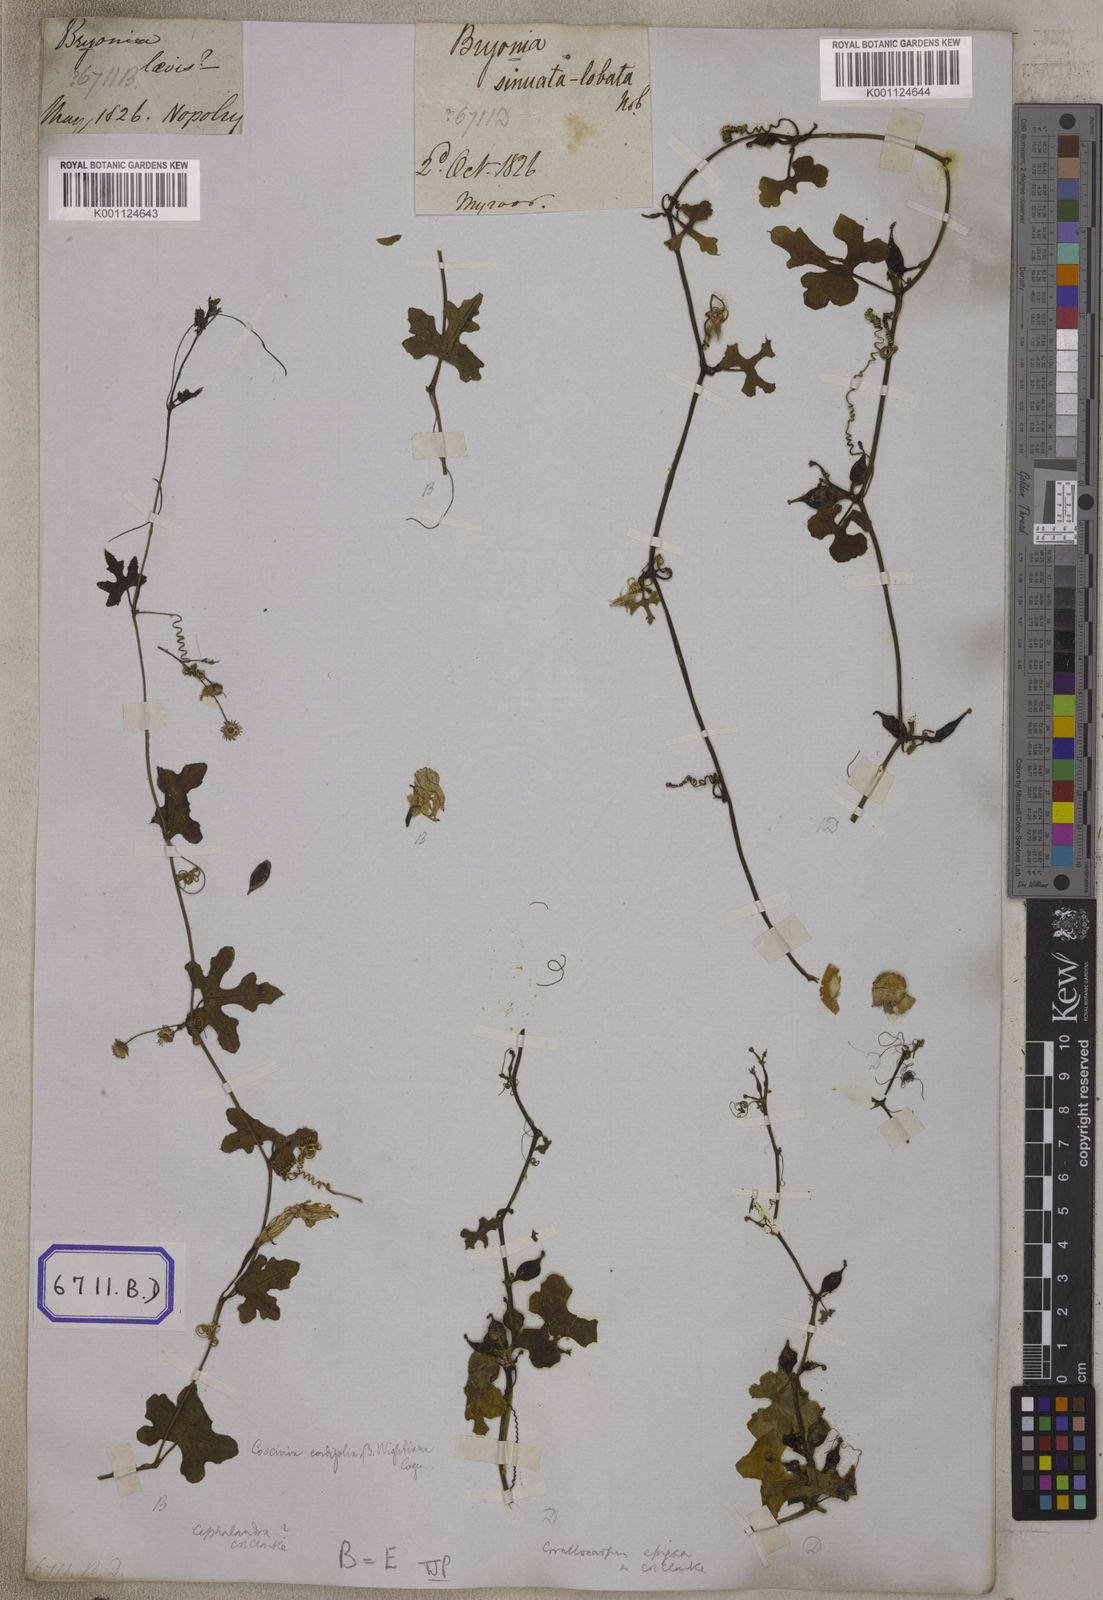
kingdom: Plantae
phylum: Tracheophyta
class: Magnoliopsida
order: Cucurbitales
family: Cucurbitaceae
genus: Bryonia
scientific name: Bryonia
